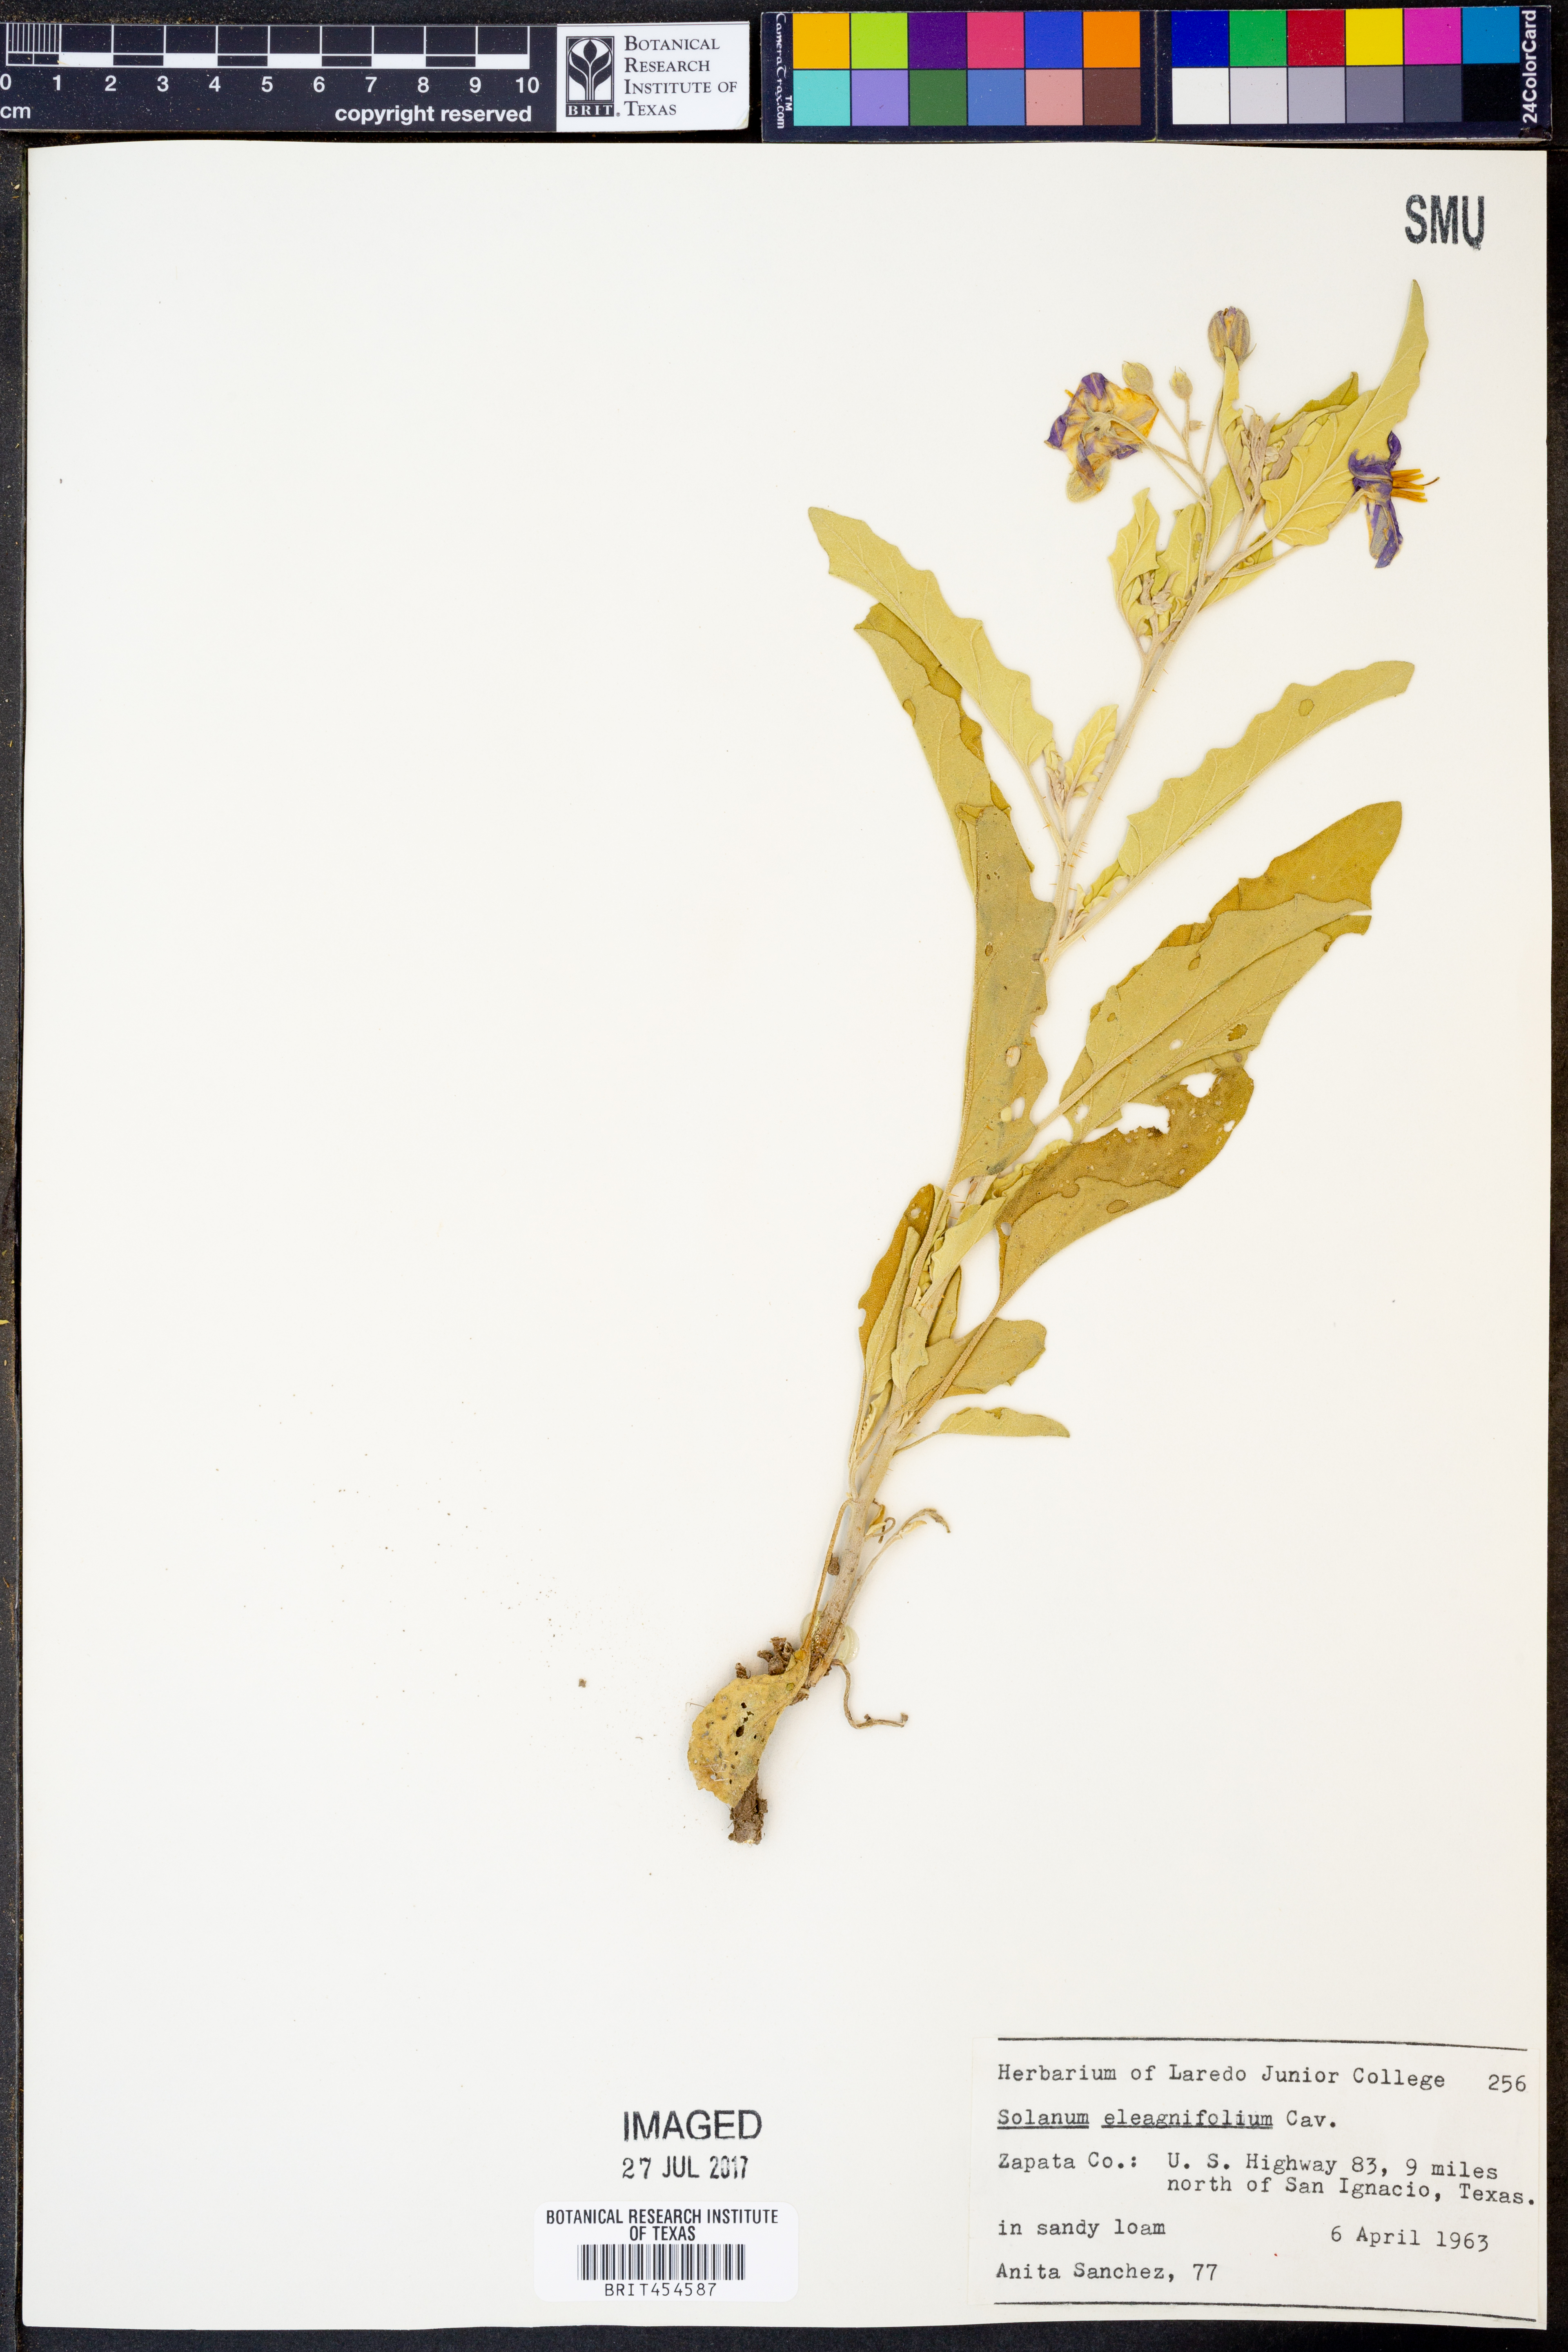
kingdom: Plantae
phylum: Tracheophyta
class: Magnoliopsida
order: Solanales
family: Solanaceae
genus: Solanum
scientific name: Solanum elaeagnifolium
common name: Silverleaf nightshade
